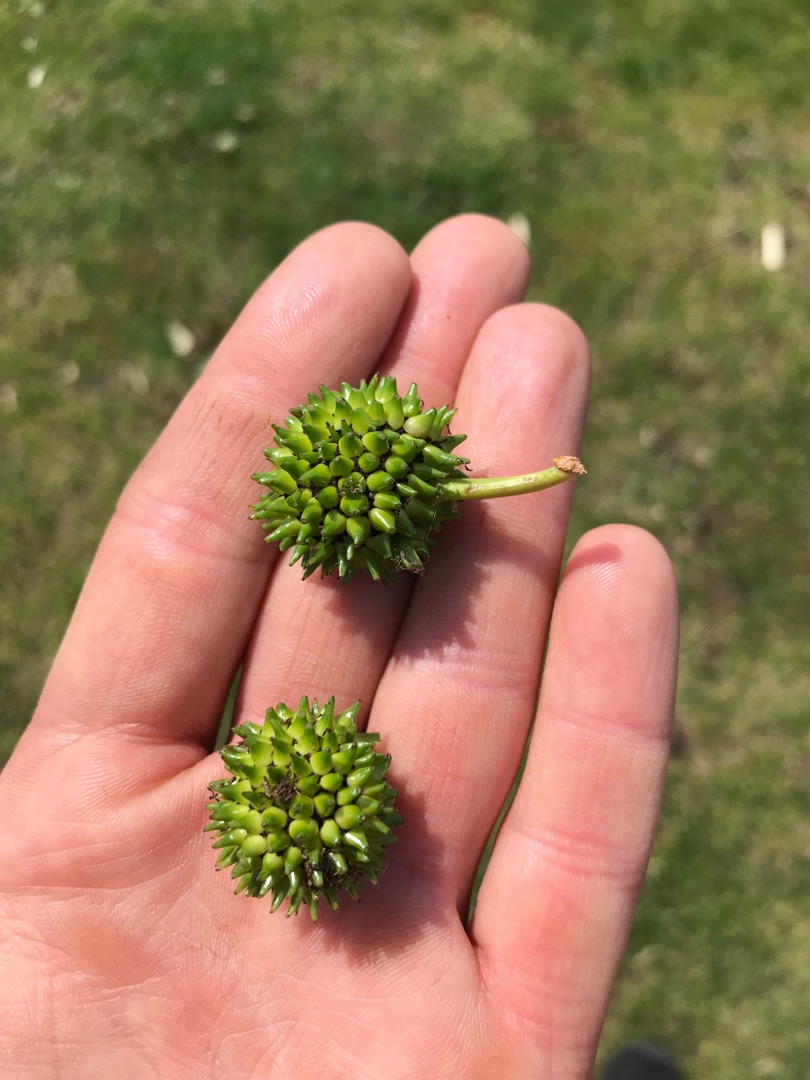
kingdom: Plantae
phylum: Tracheophyta
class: Liliopsida
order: Poales
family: Typhaceae
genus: Sparganium
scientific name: Sparganium erectum
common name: Grenet pindsvineknop
